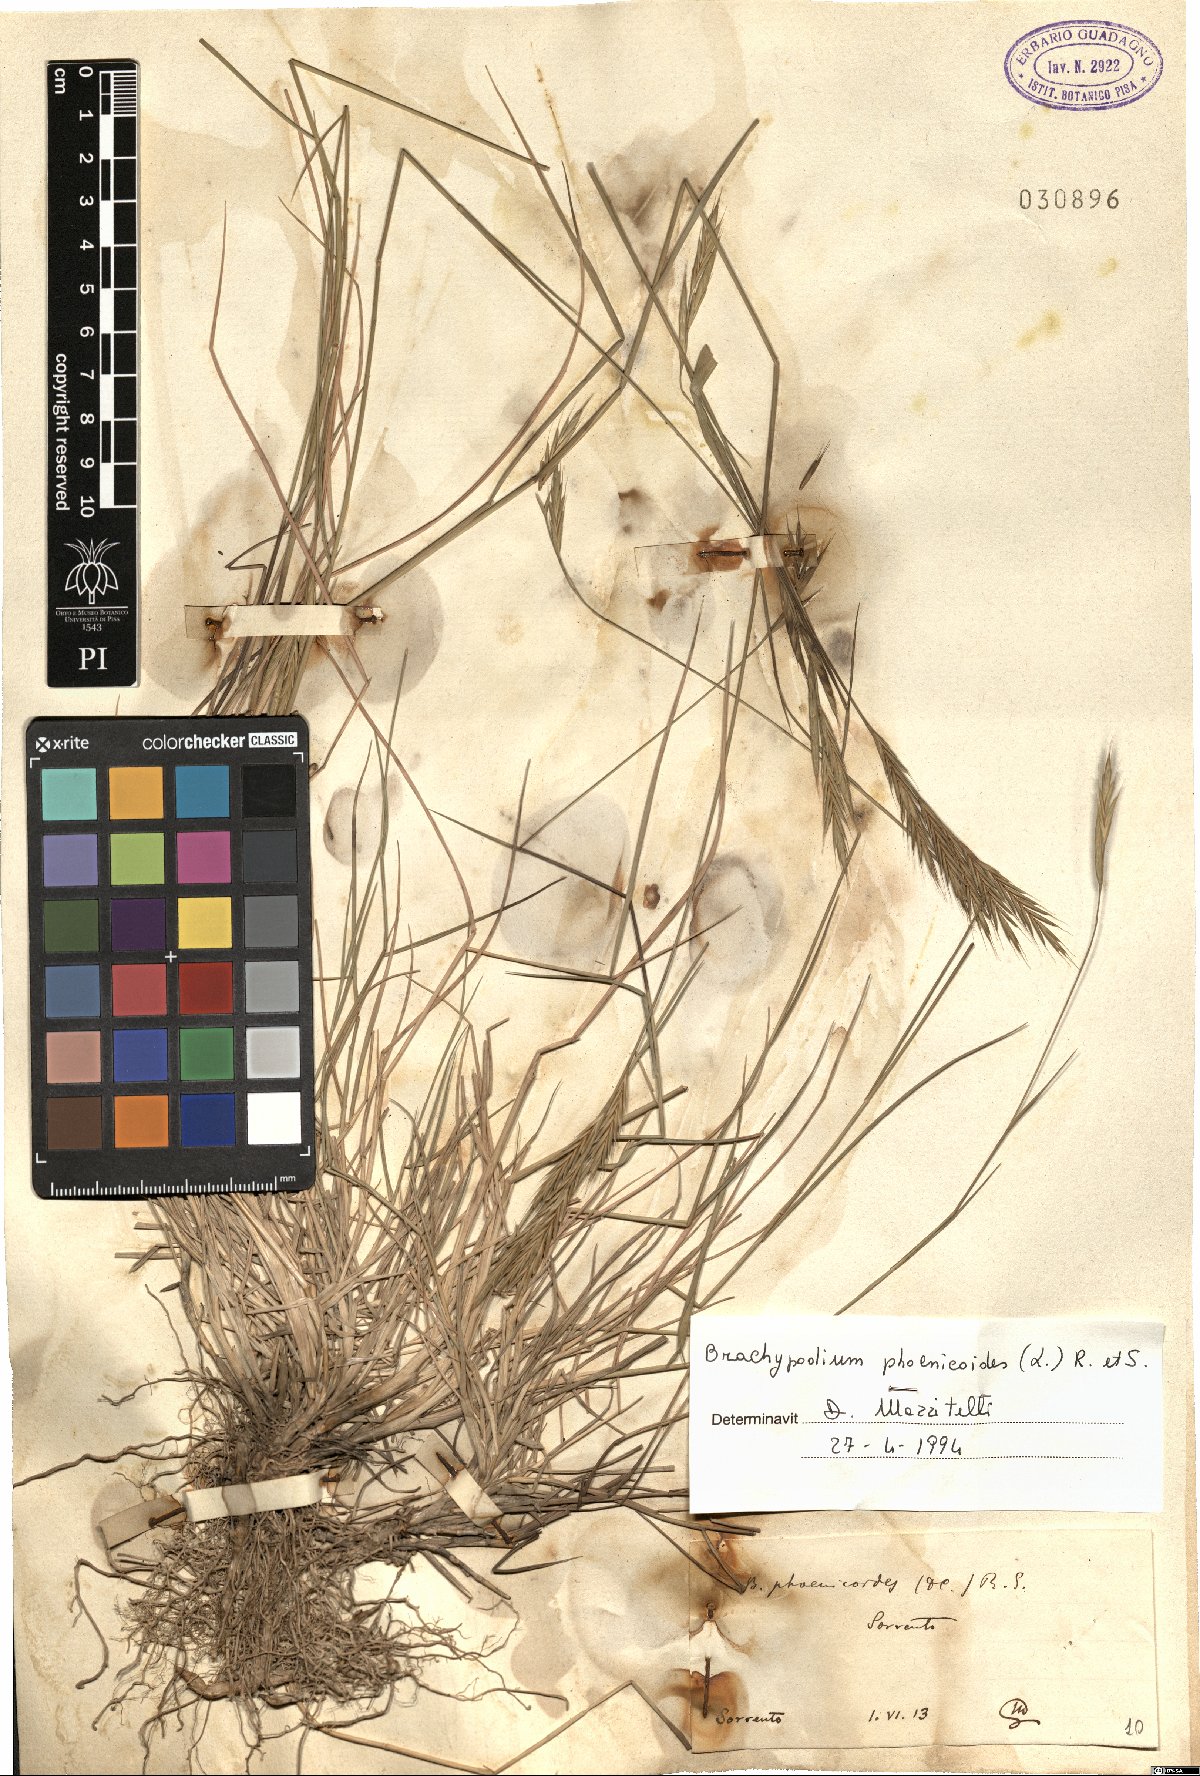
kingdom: Plantae
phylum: Tracheophyta
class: Liliopsida
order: Poales
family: Poaceae
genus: Brachypodium
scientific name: Brachypodium phoenicoides
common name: Thinleaf false brome
